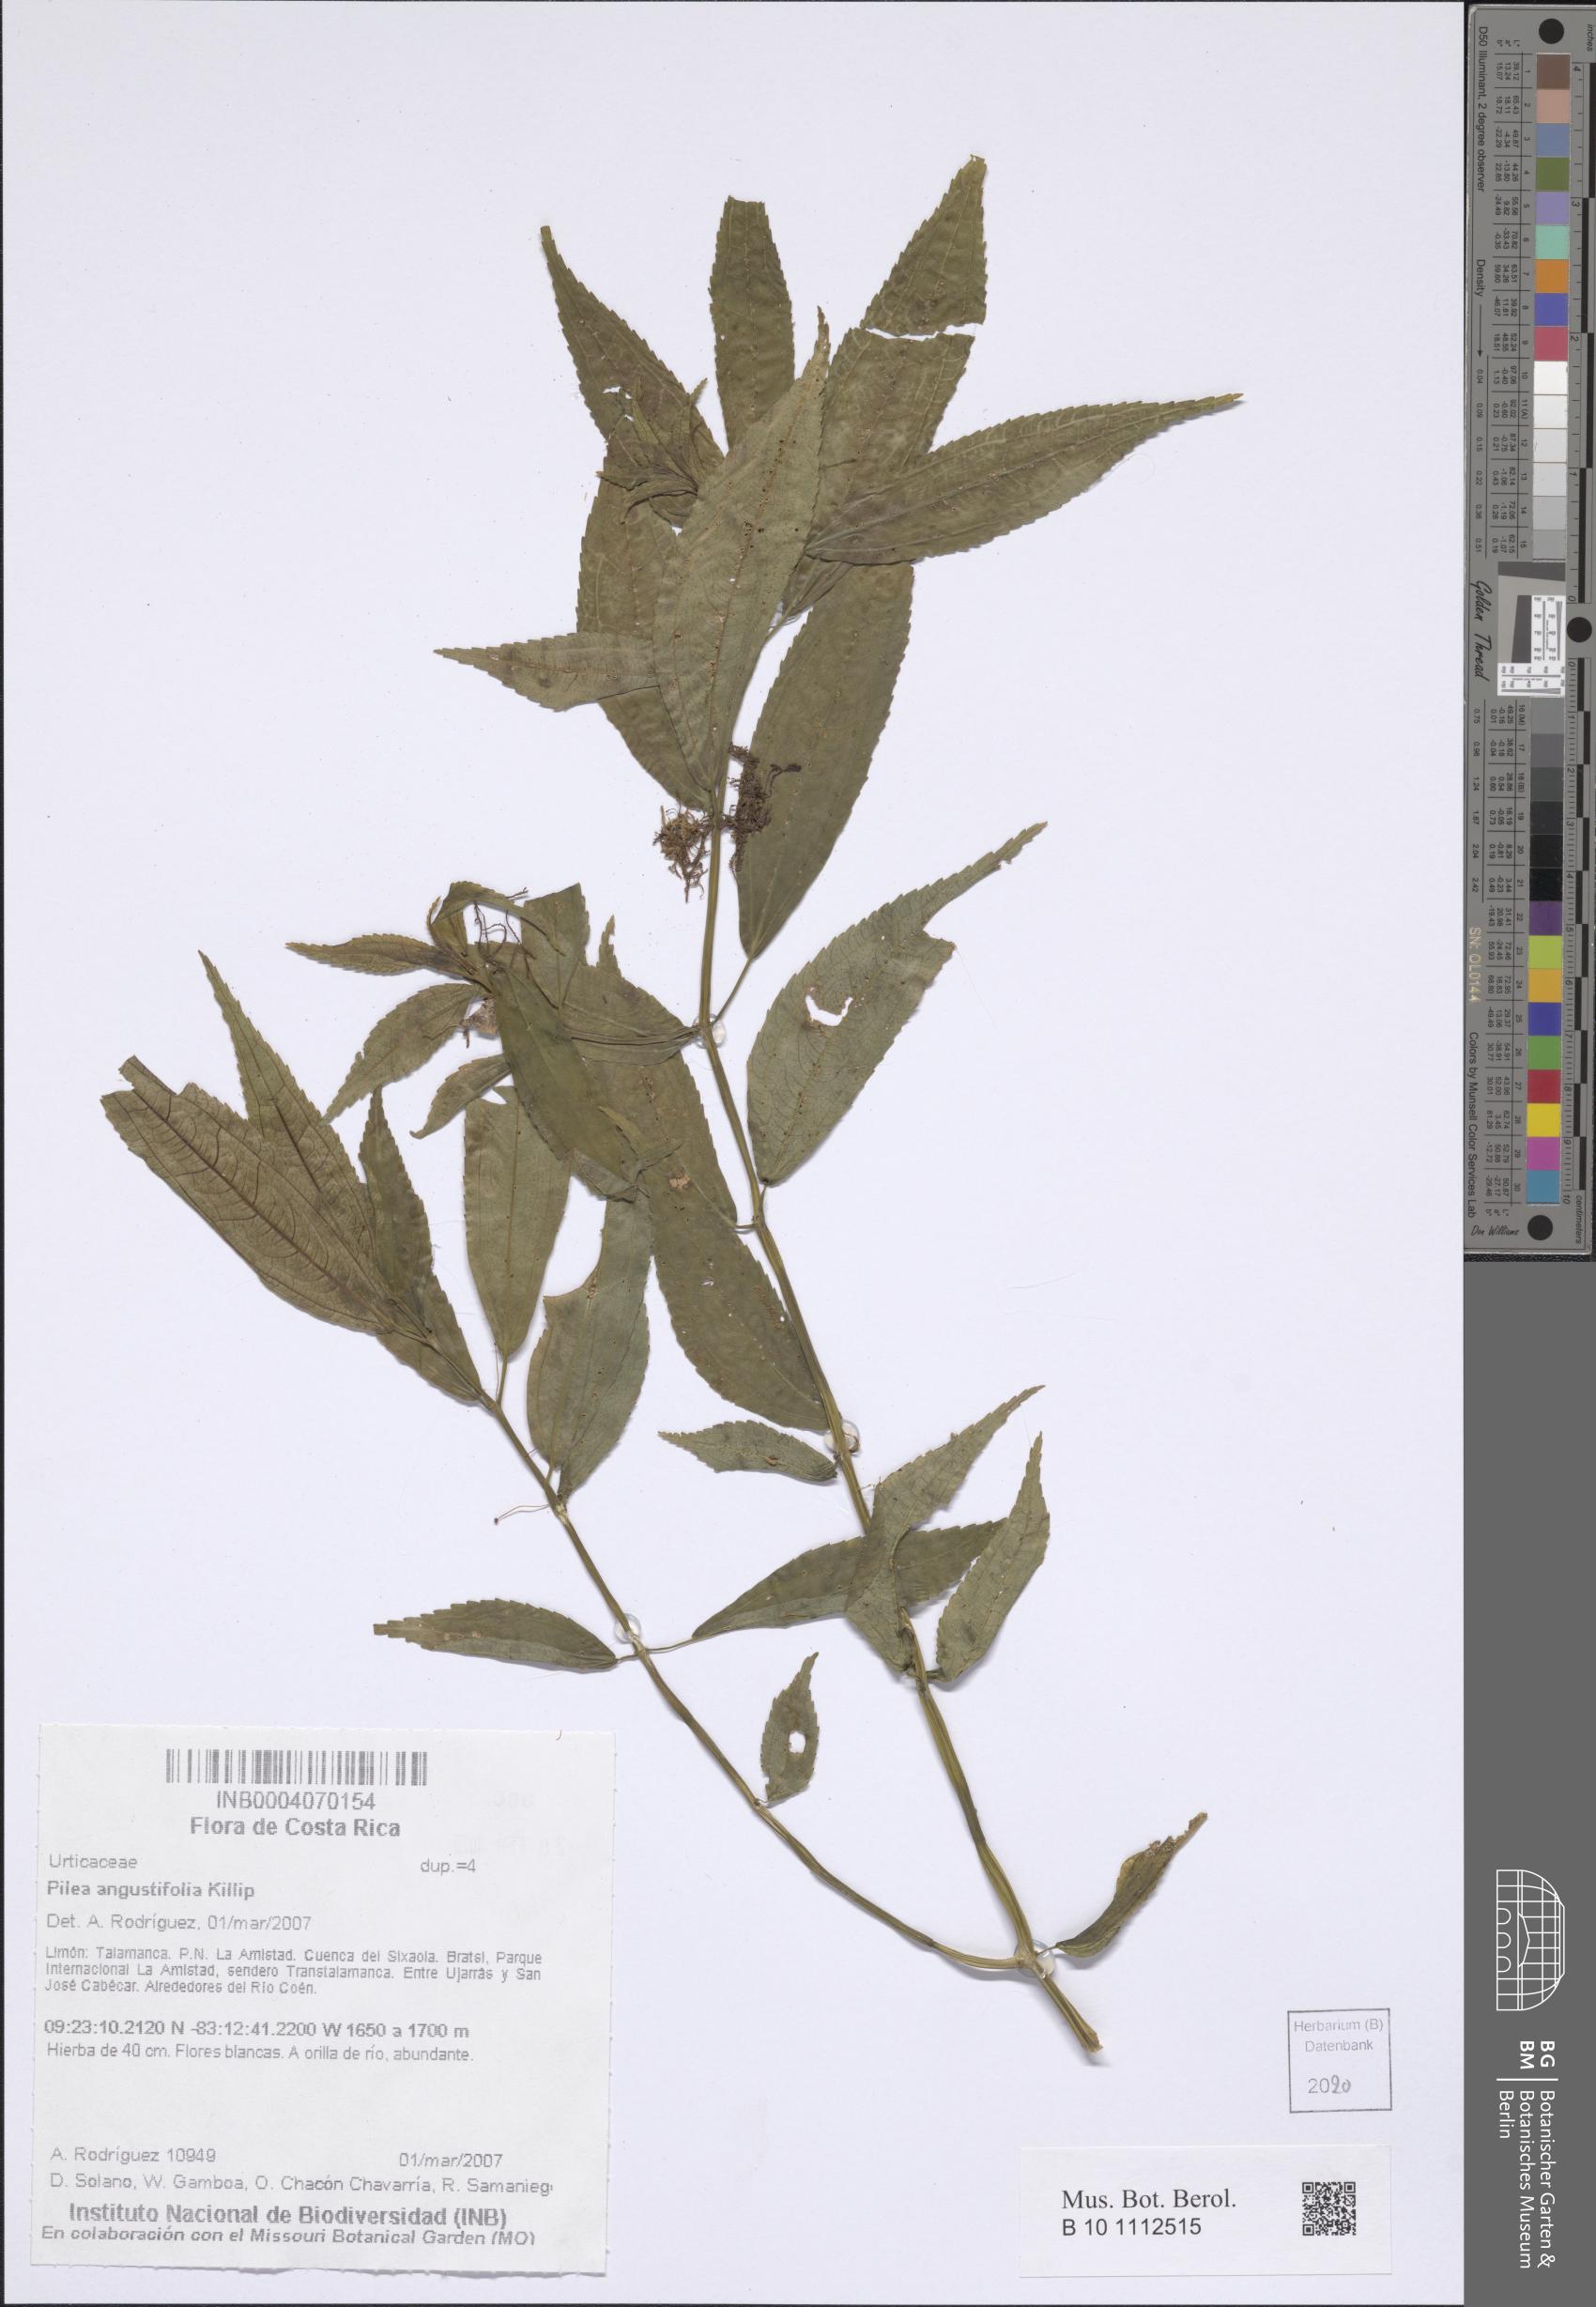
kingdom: Plantae
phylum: Tracheophyta
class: Magnoliopsida
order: Rosales
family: Urticaceae
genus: Pilea
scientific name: Pilea angustifolia
